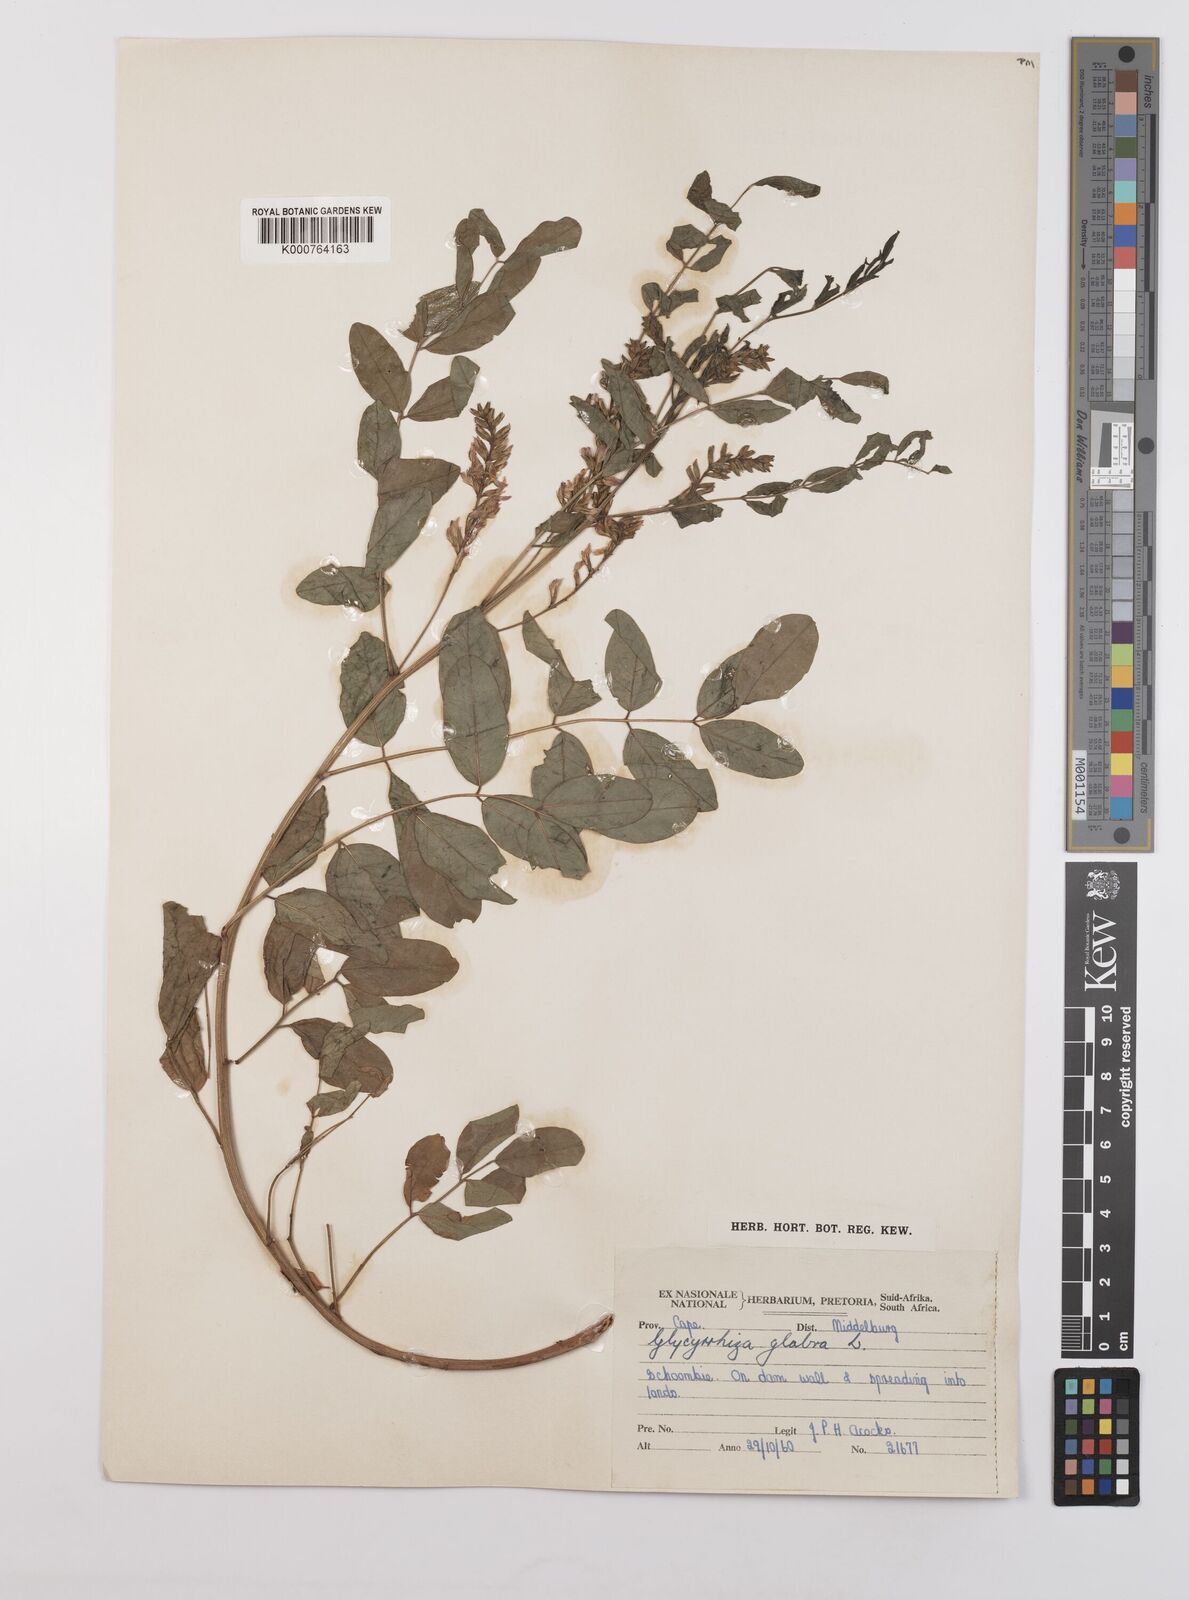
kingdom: Plantae
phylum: Tracheophyta
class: Magnoliopsida
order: Fabales
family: Fabaceae
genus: Glycyrrhiza
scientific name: Glycyrrhiza glabra
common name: Liquorice
